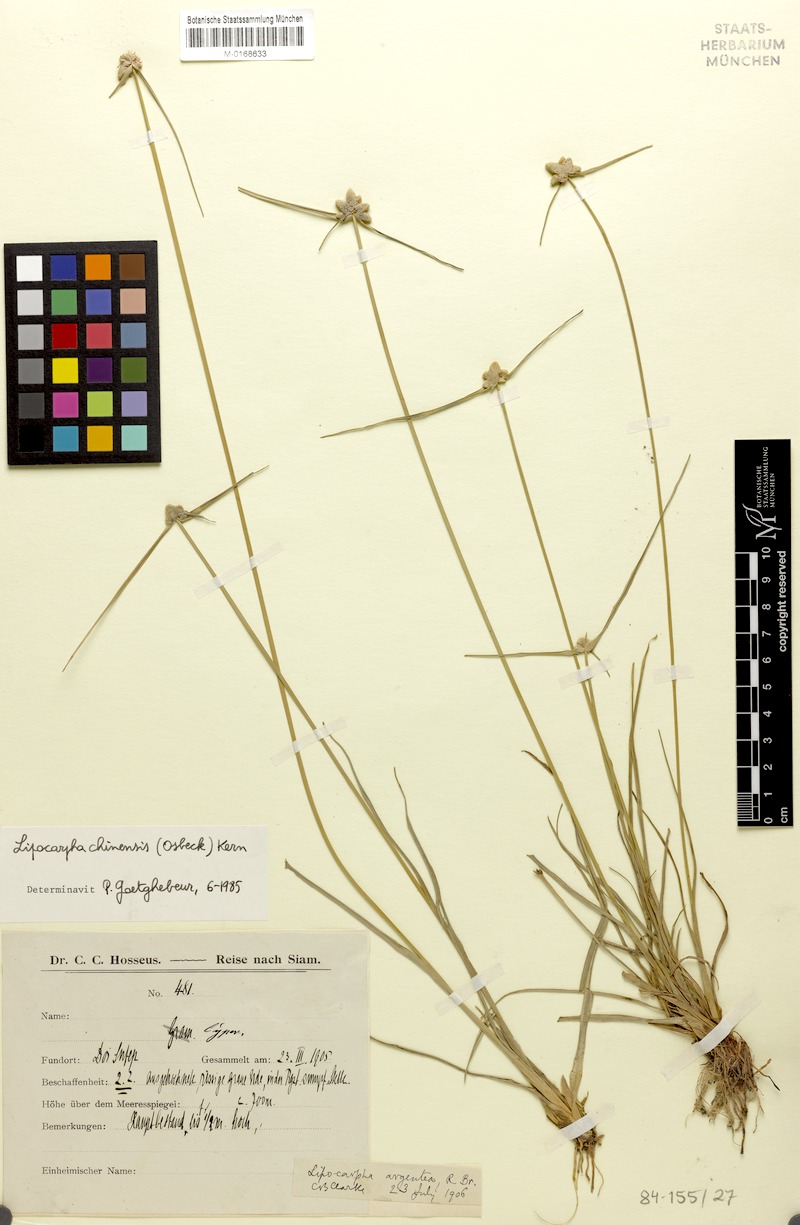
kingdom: Plantae
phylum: Tracheophyta
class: Liliopsida
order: Poales
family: Cyperaceae
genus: Cyperus
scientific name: Cyperus albescens
